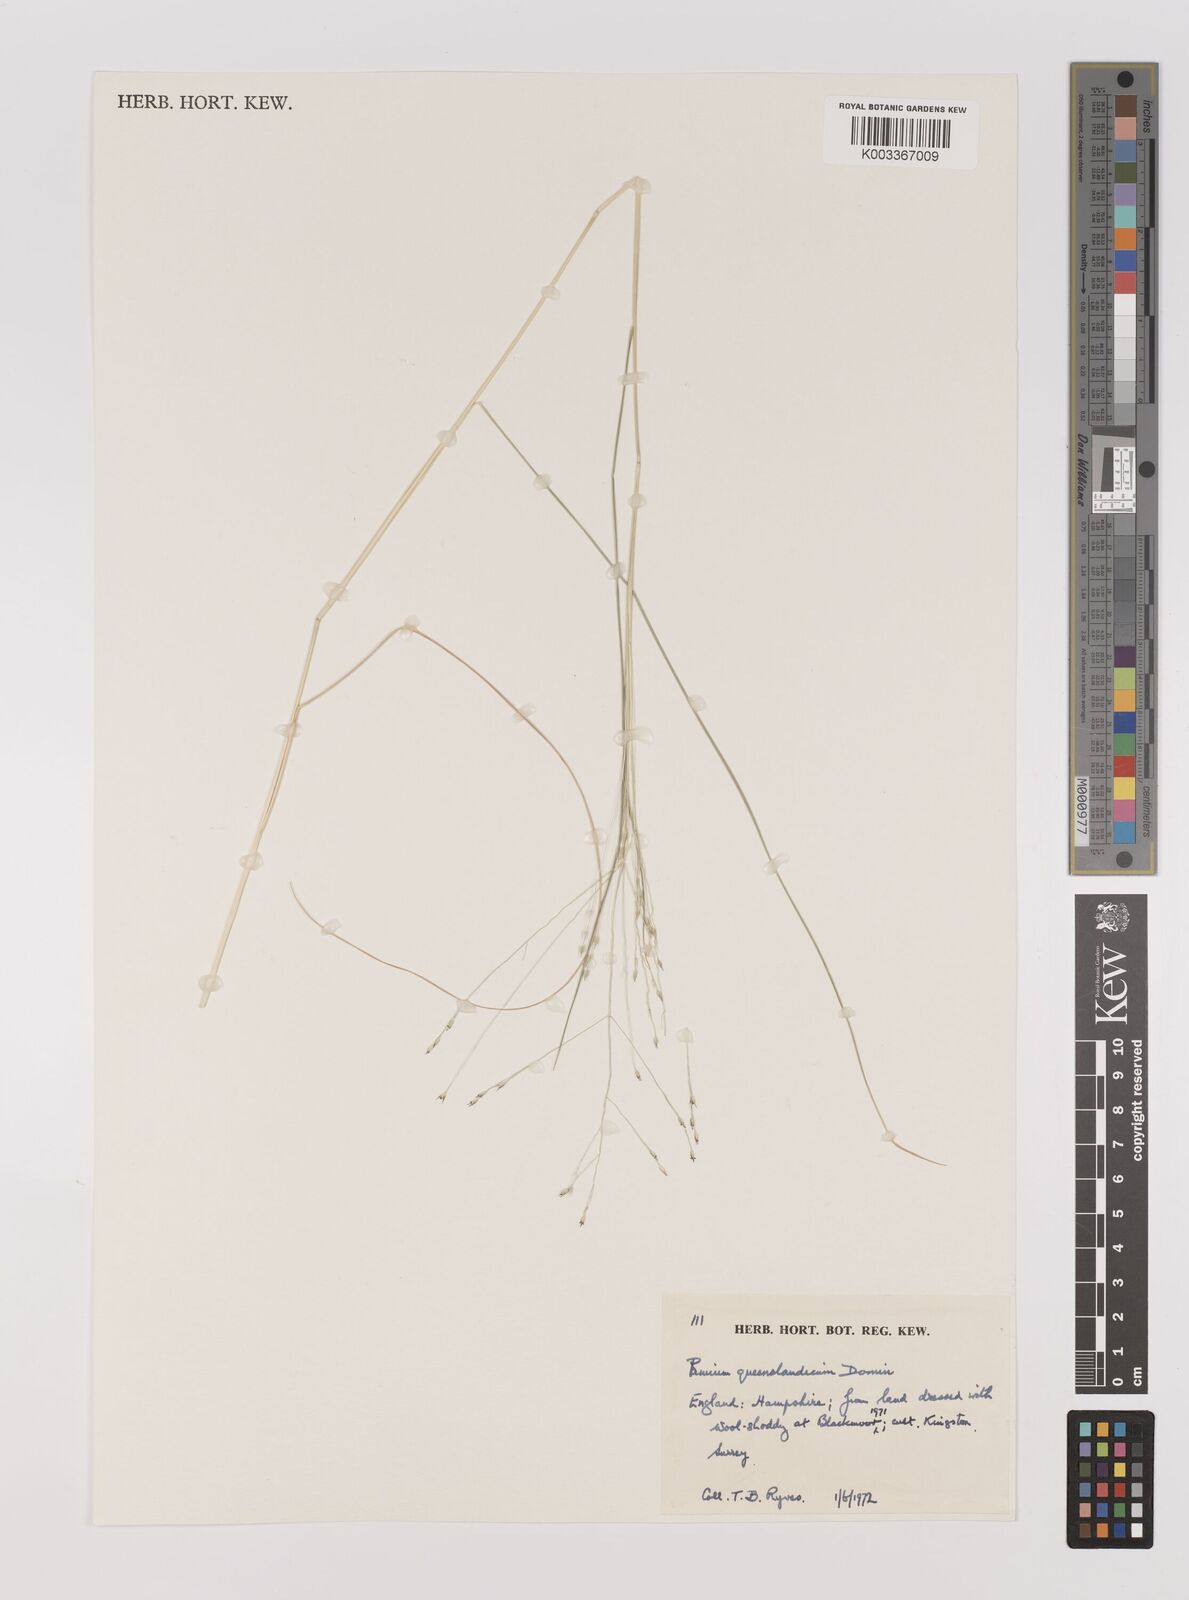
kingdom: Plantae
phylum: Tracheophyta
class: Liliopsida
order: Poales
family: Poaceae
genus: Panicum
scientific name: Panicum queenslandicum
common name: Yabila grass
